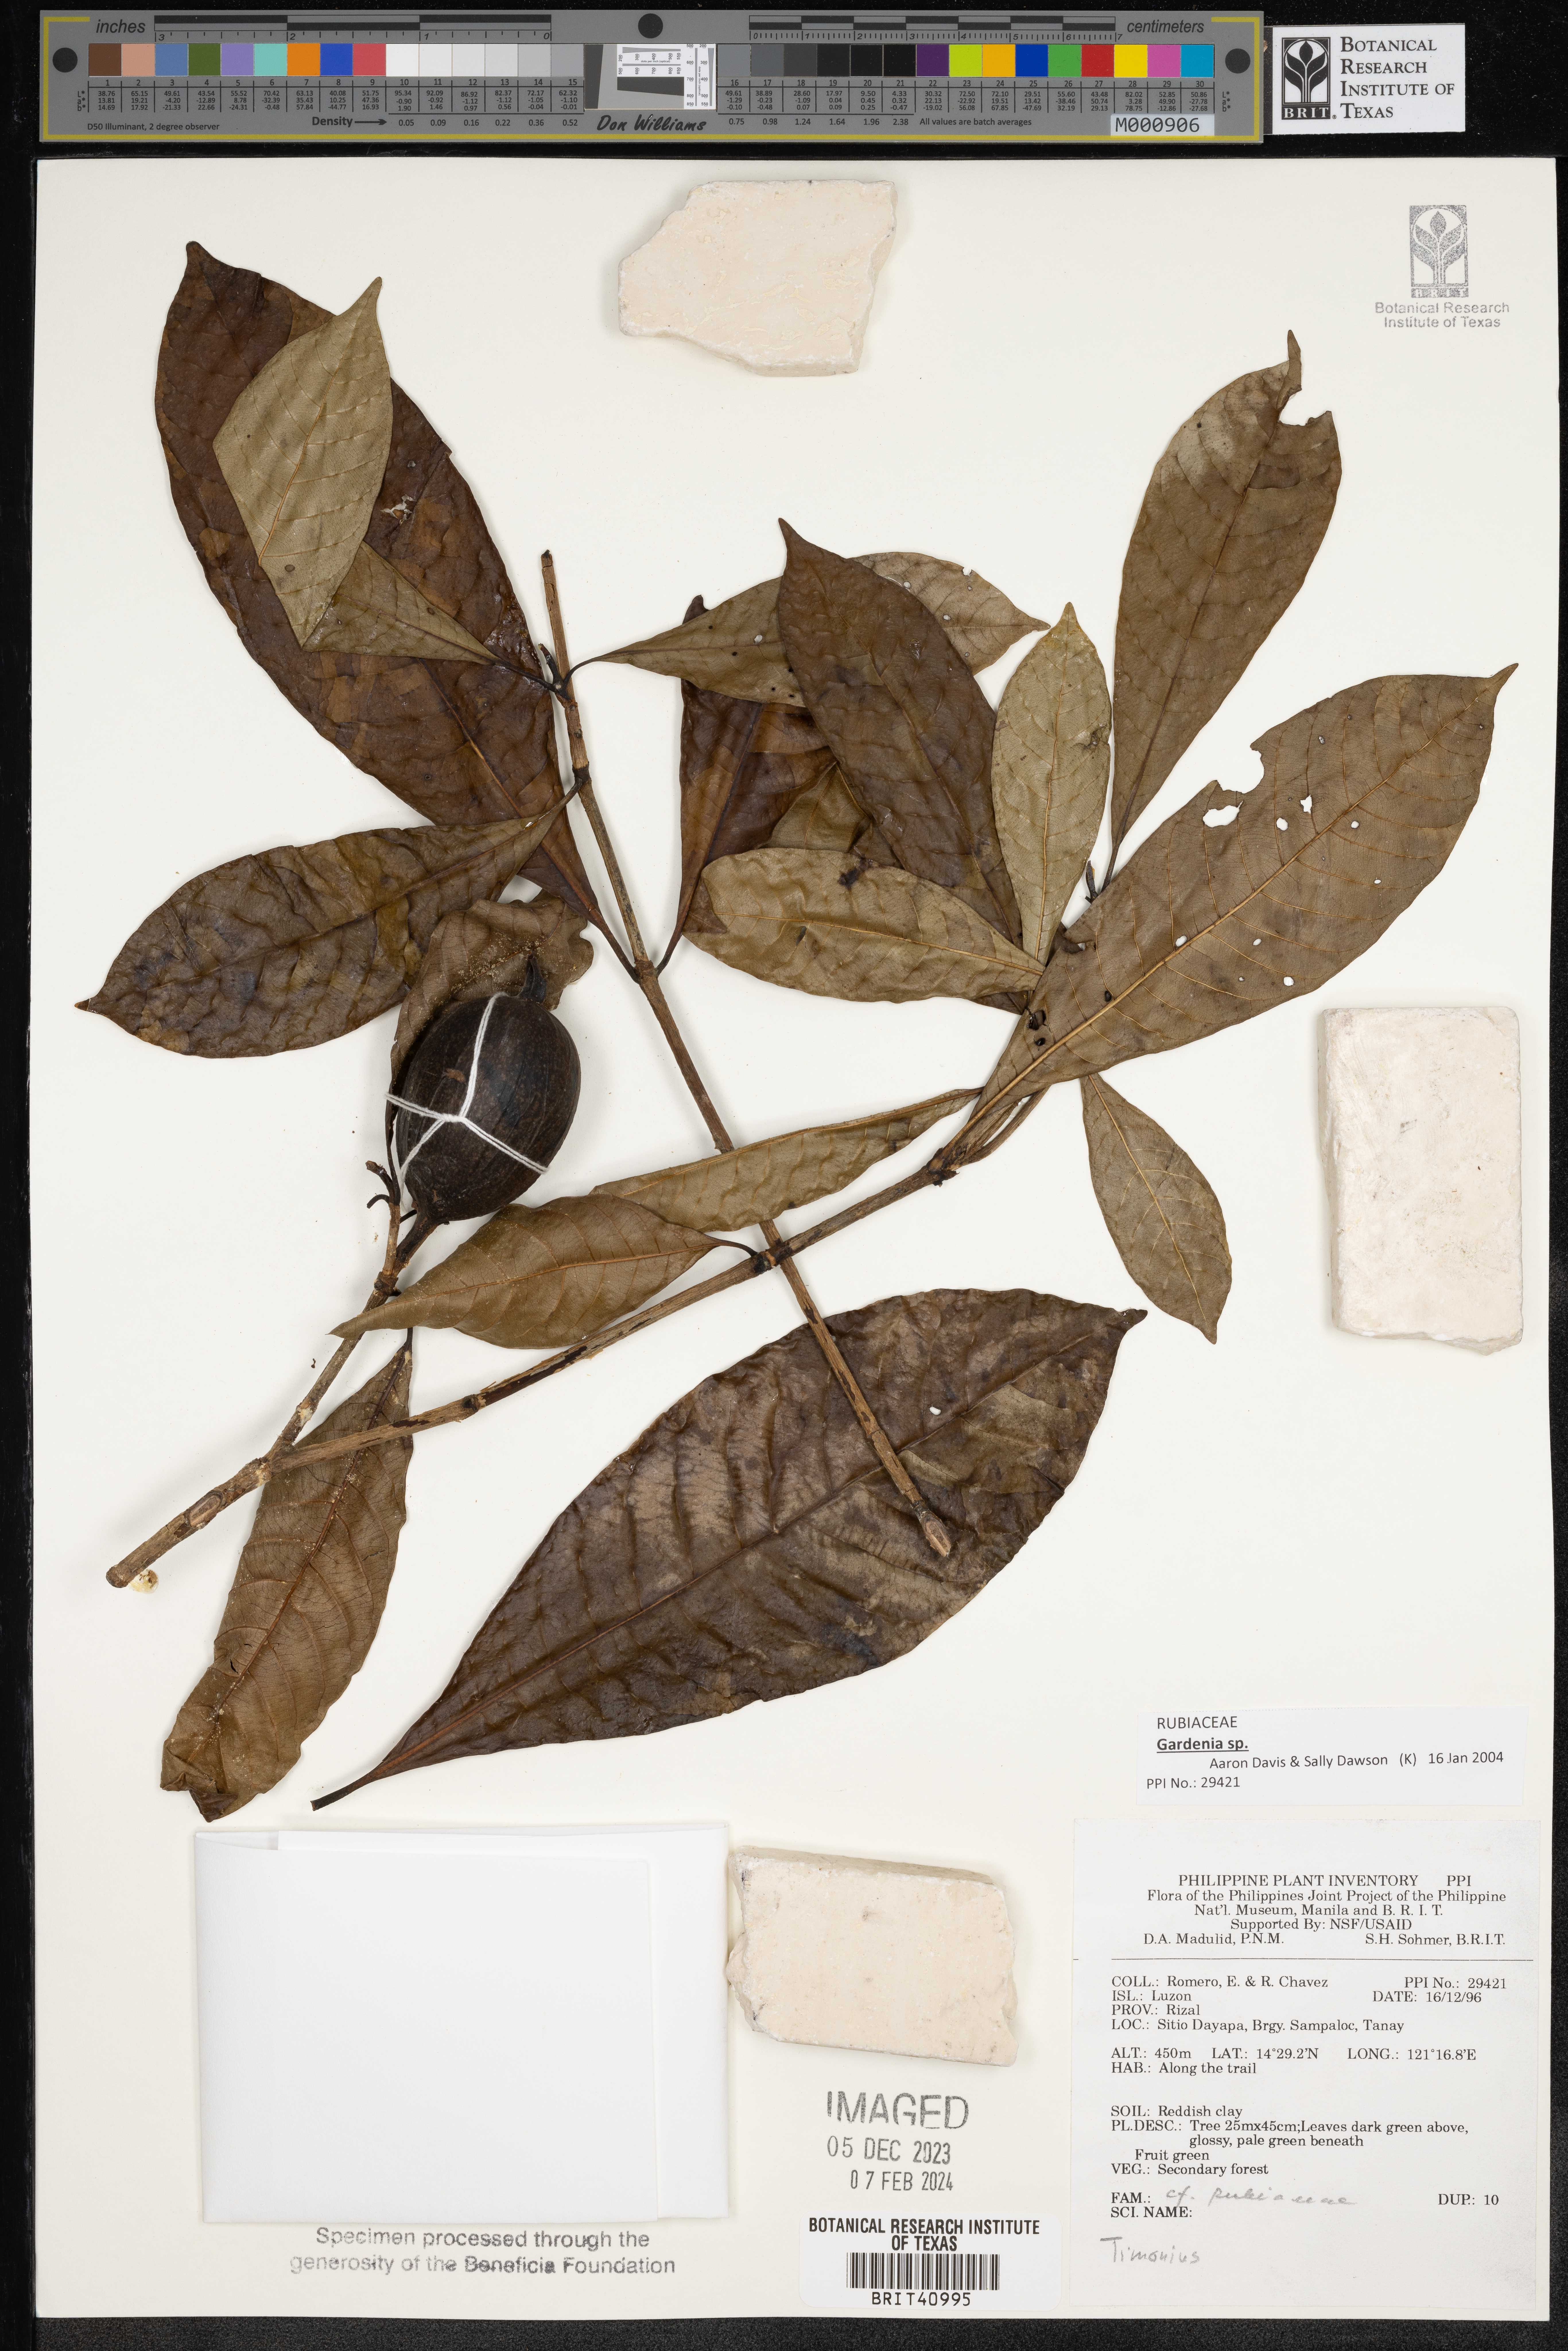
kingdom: Plantae
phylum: Tracheophyta
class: Magnoliopsida
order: Gentianales
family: Rubiaceae
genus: Timonius
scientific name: Timonius
